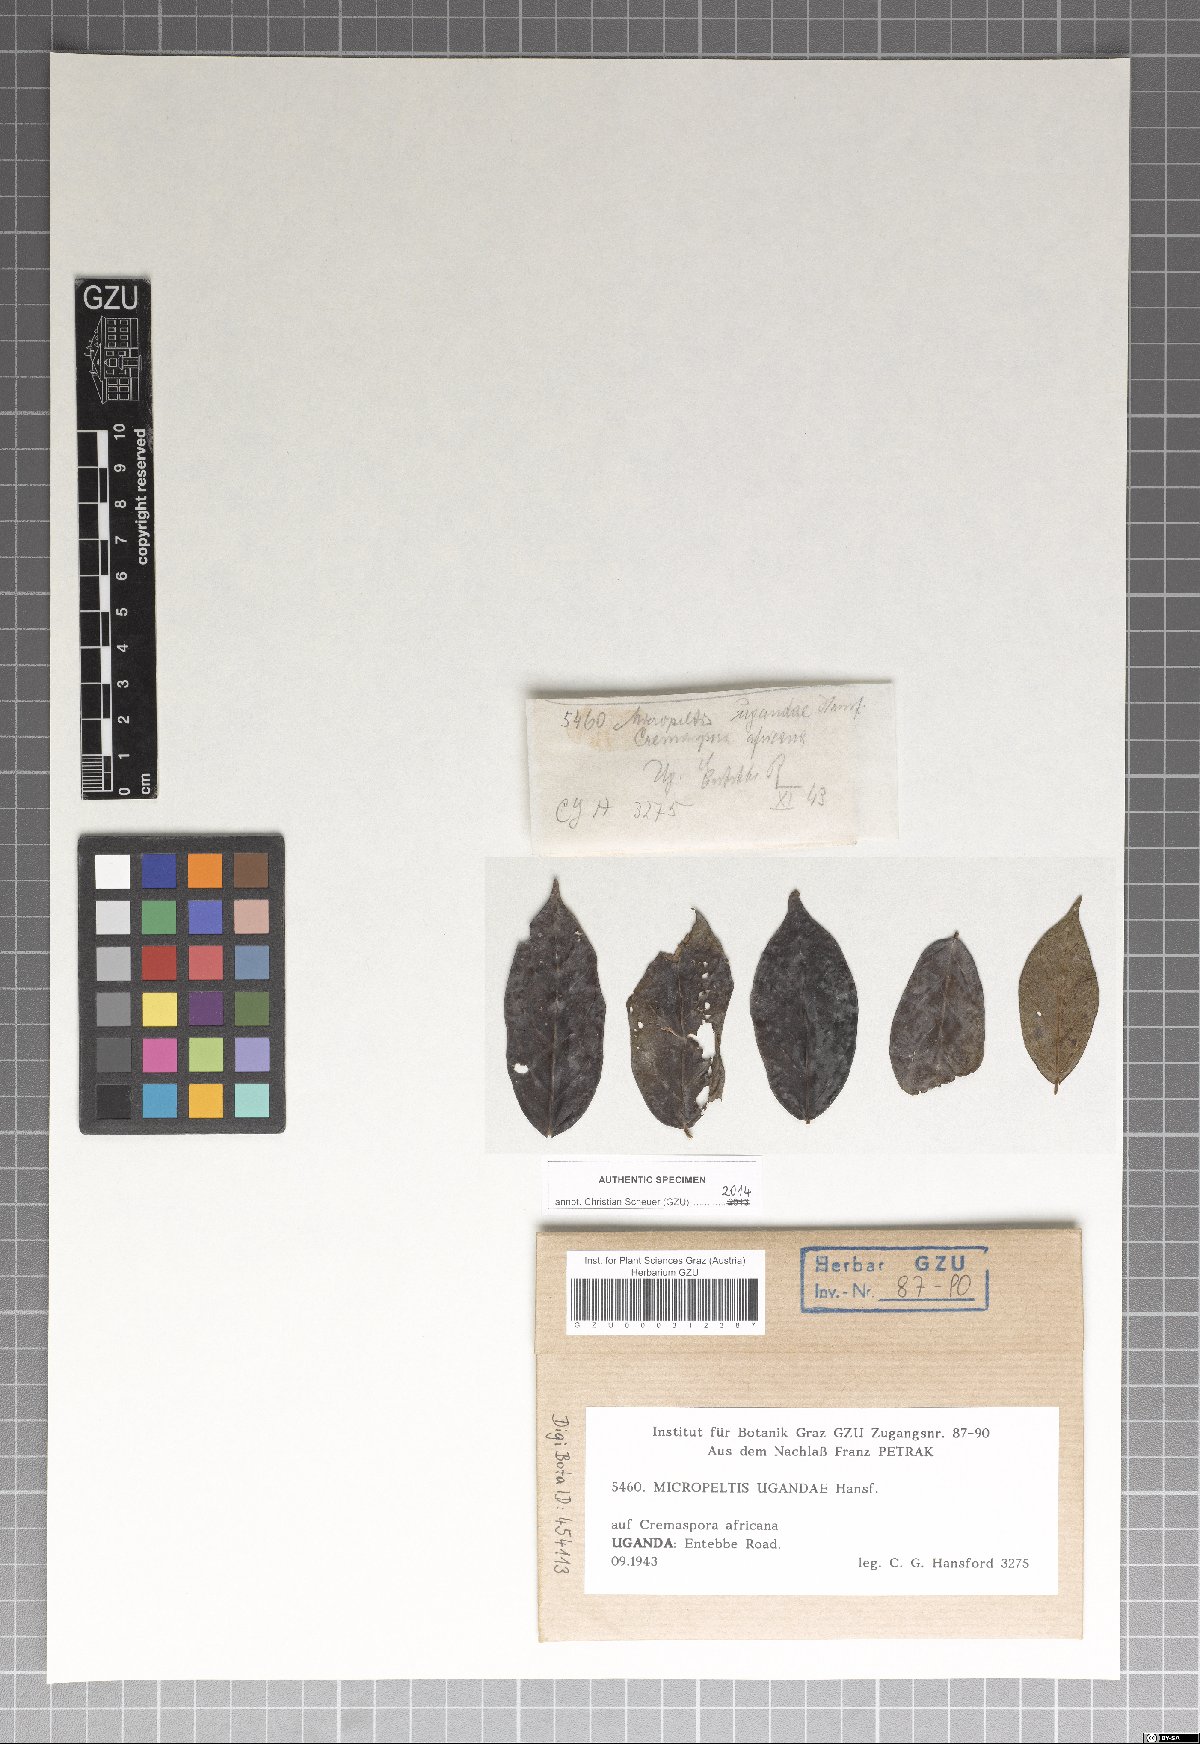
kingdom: Fungi
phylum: Ascomycota
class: Dothideomycetes
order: Microthyriales
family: Micropeltidaceae
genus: Micropeltis
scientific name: Micropeltis ugandae
